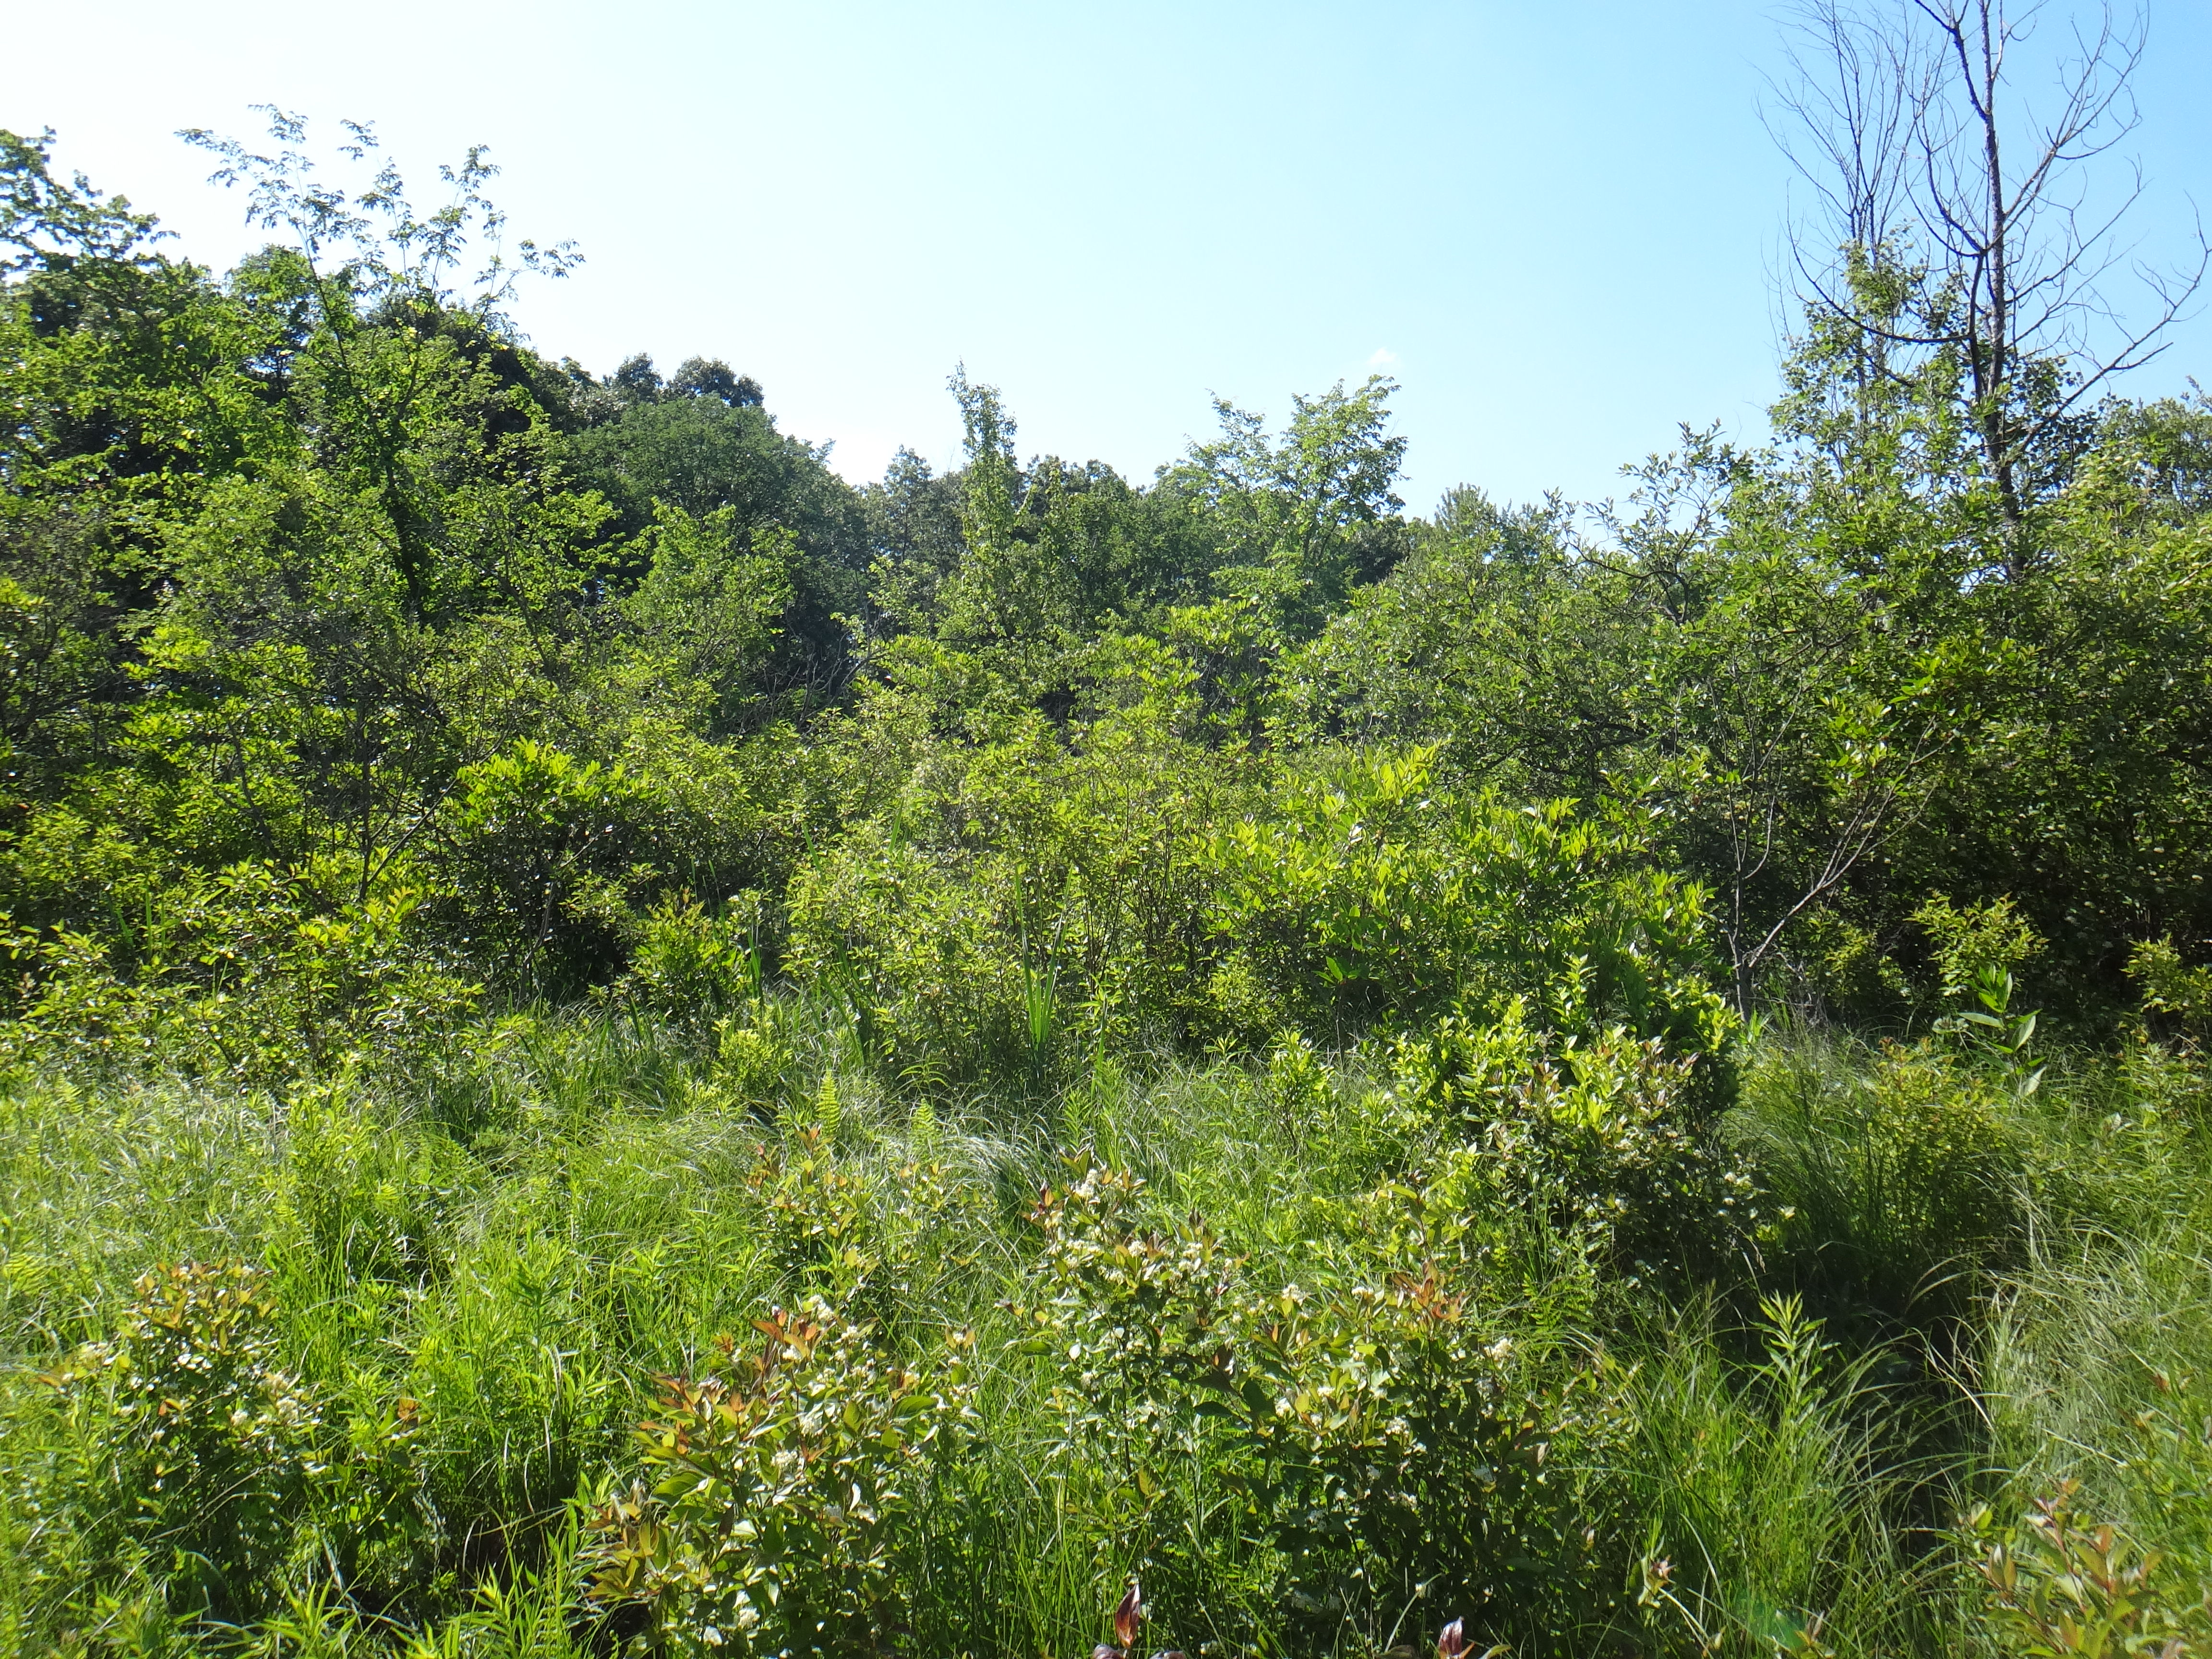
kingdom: Plantae
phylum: Tracheophyta
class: Magnoliopsida
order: Fabales
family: Fabaceae
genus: Lathyrus
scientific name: Lathyrus palustris
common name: Marsh pea
